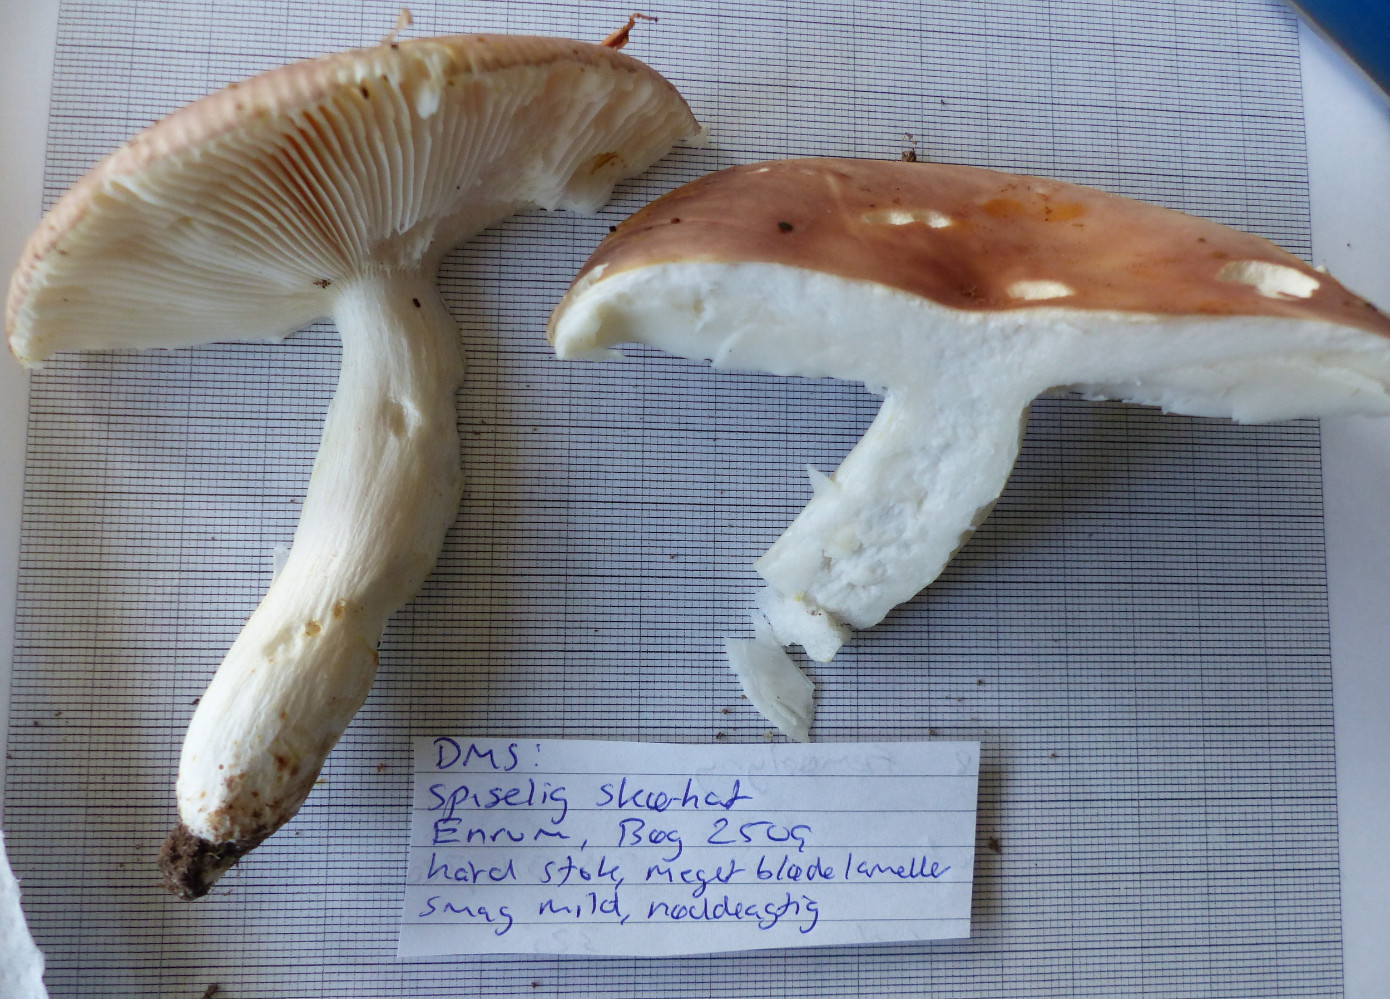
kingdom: Fungi
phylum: Basidiomycota
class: Agaricomycetes
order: Russulales
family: Russulaceae
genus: Russula
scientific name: Russula vesca
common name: spiselig skørhat
